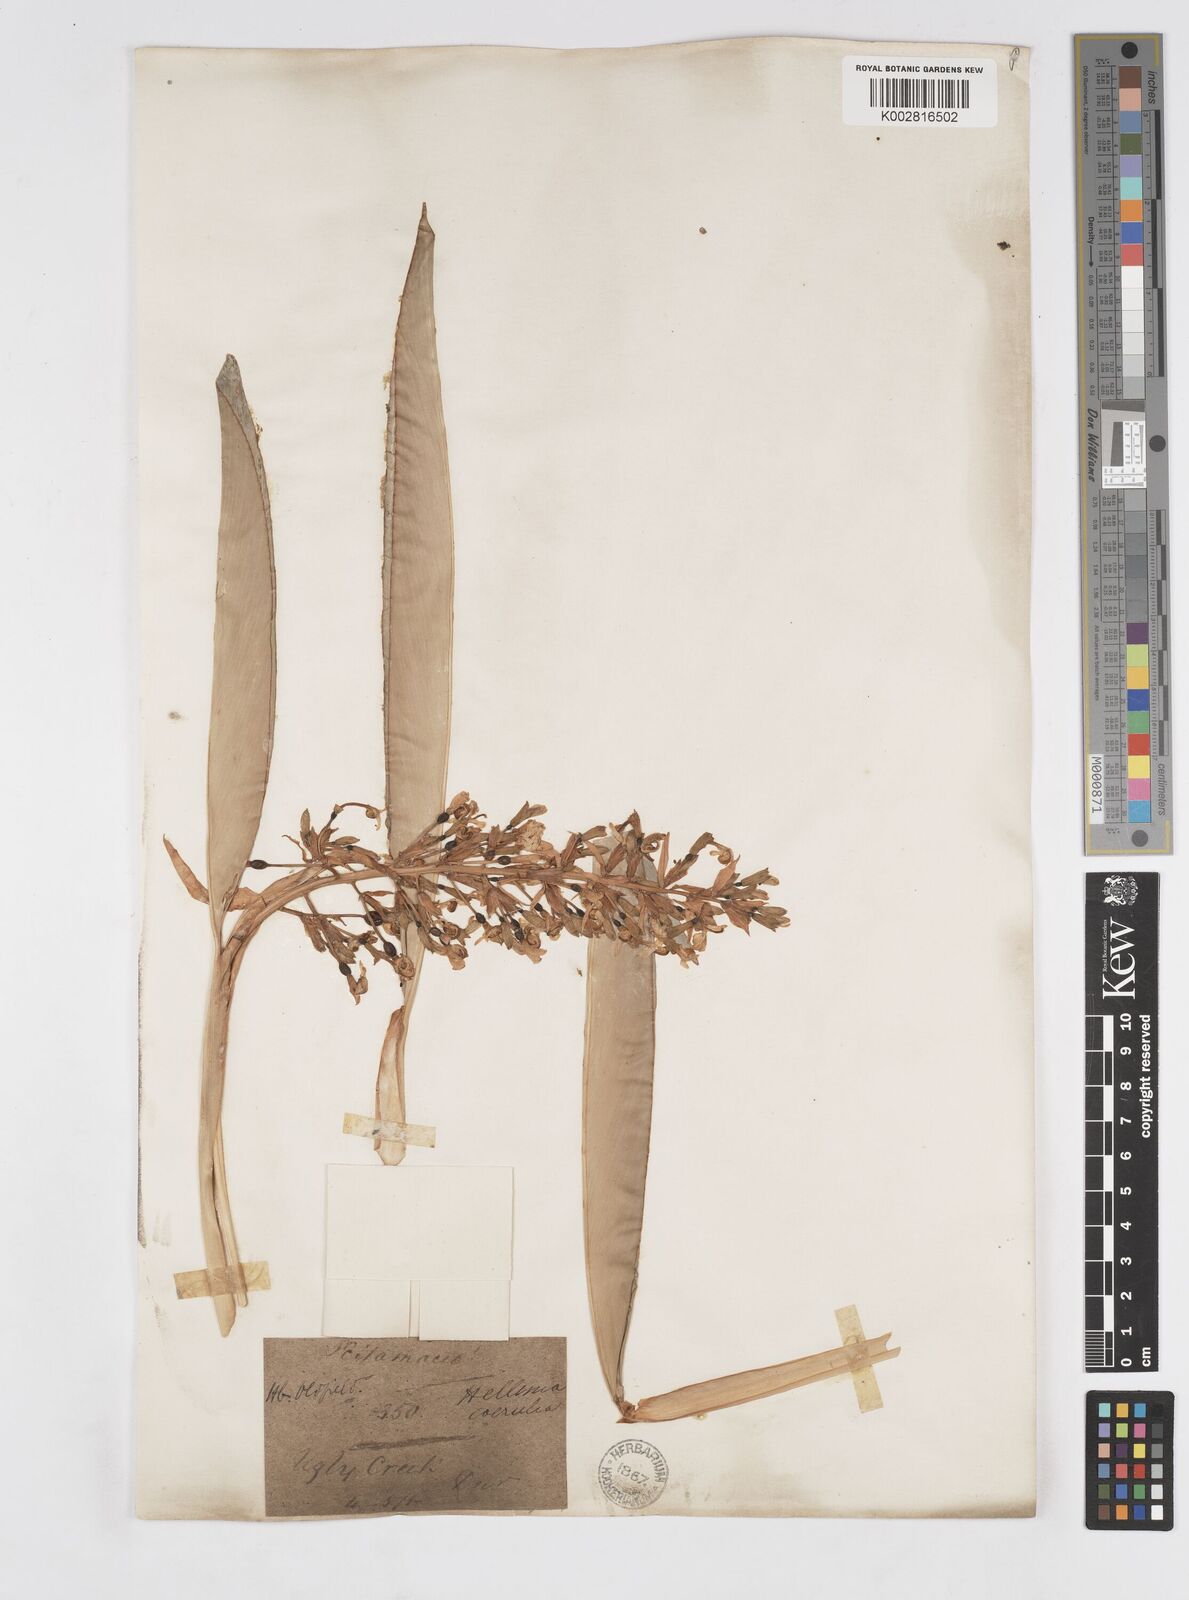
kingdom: Plantae
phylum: Tracheophyta
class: Liliopsida
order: Zingiberales
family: Zingiberaceae
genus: Alpinia
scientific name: Alpinia
